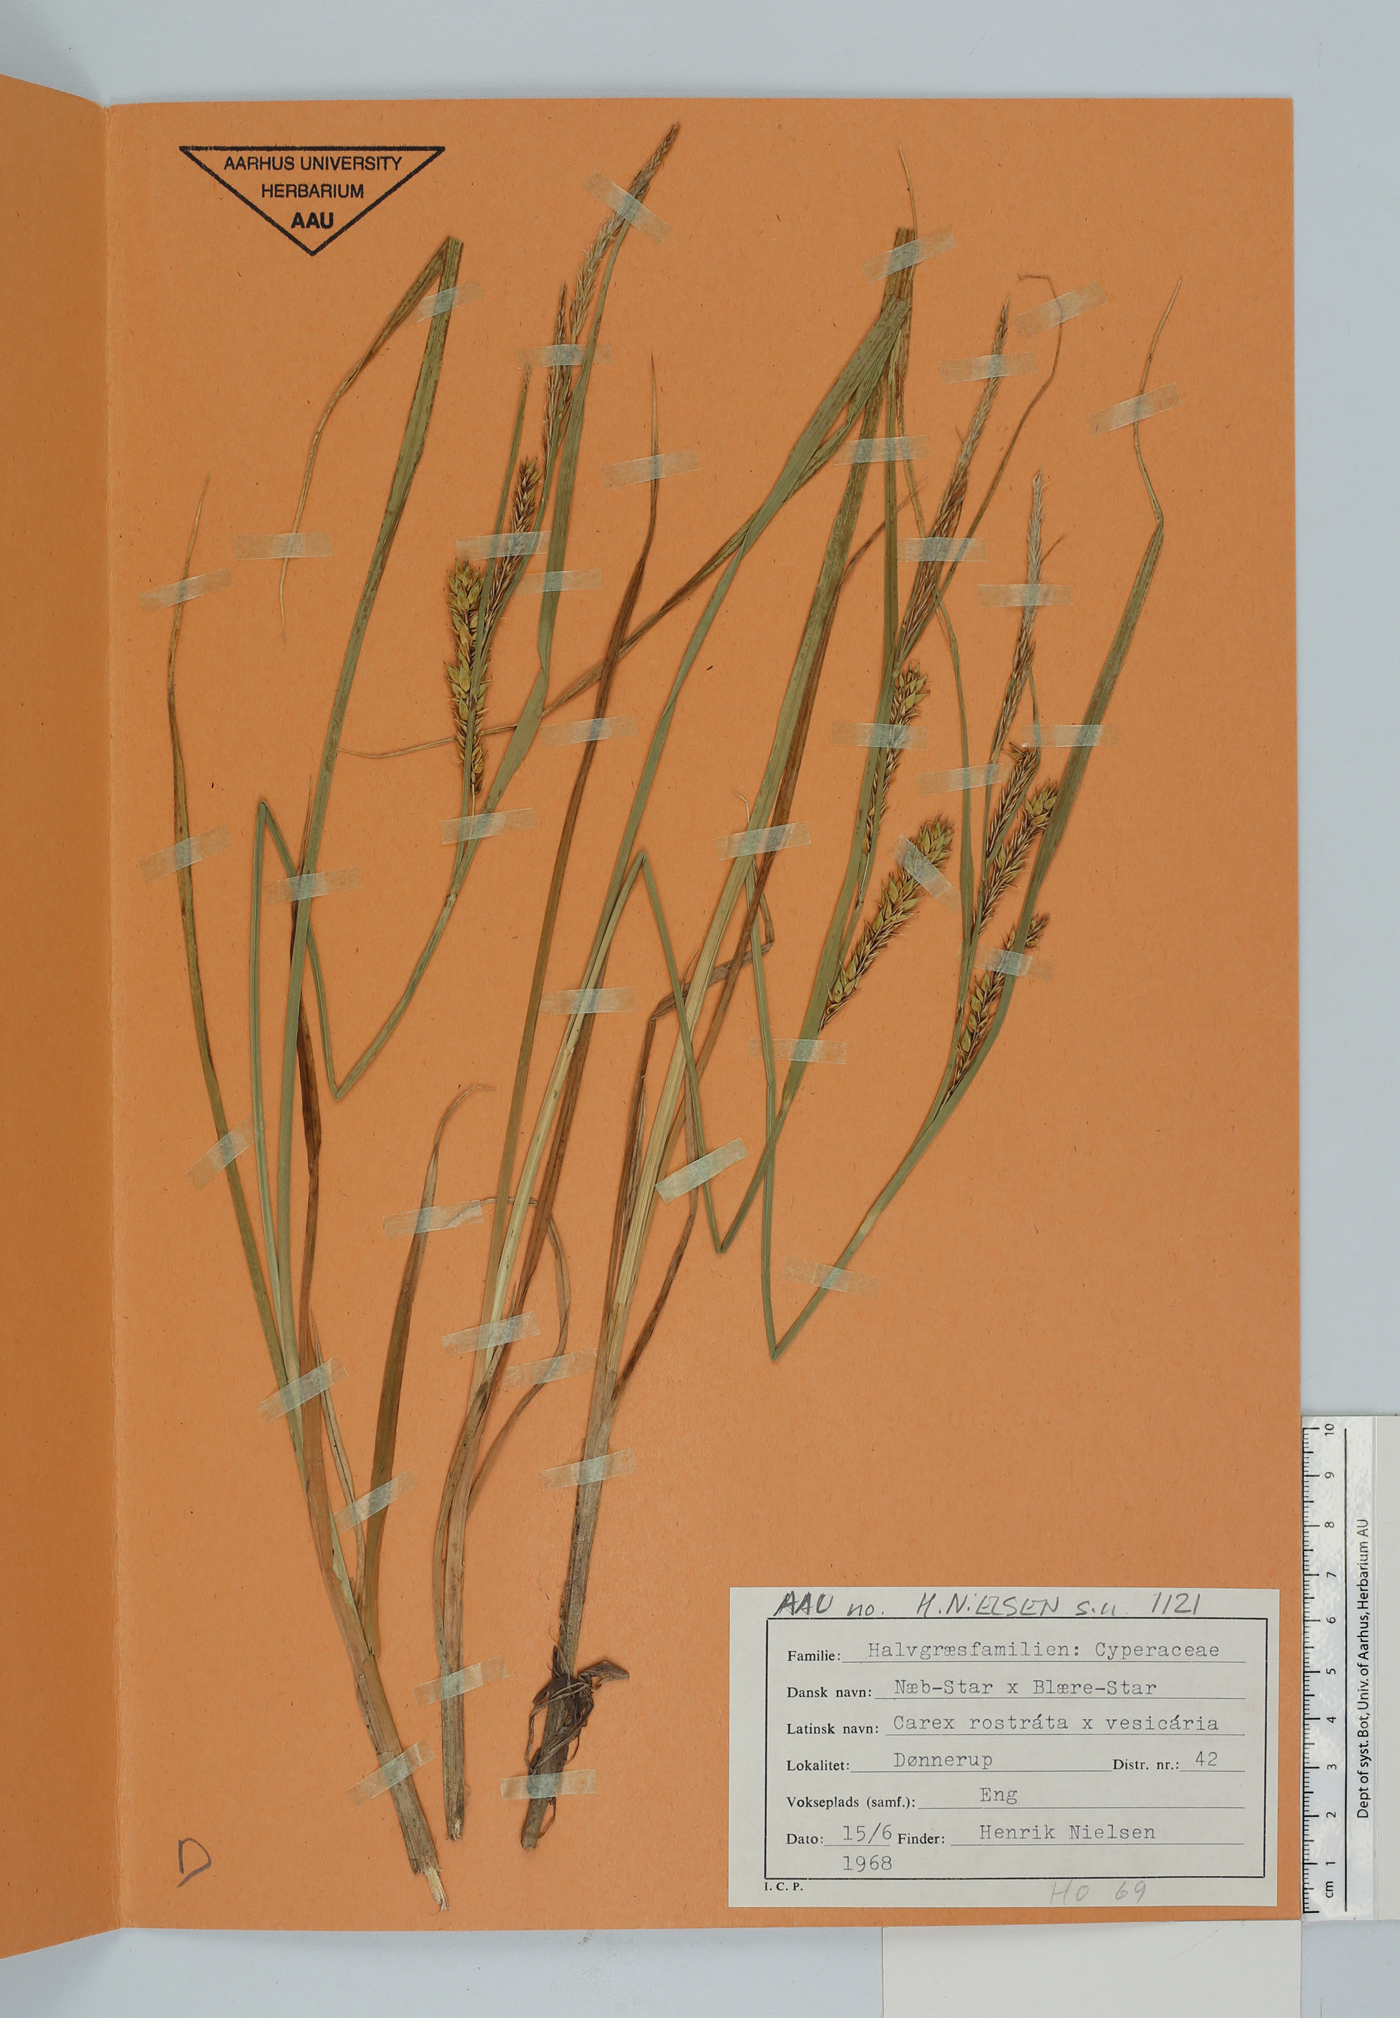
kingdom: Plantae
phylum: Tracheophyta
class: Liliopsida
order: Poales
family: Cyperaceae
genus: Carex
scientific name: Carex
